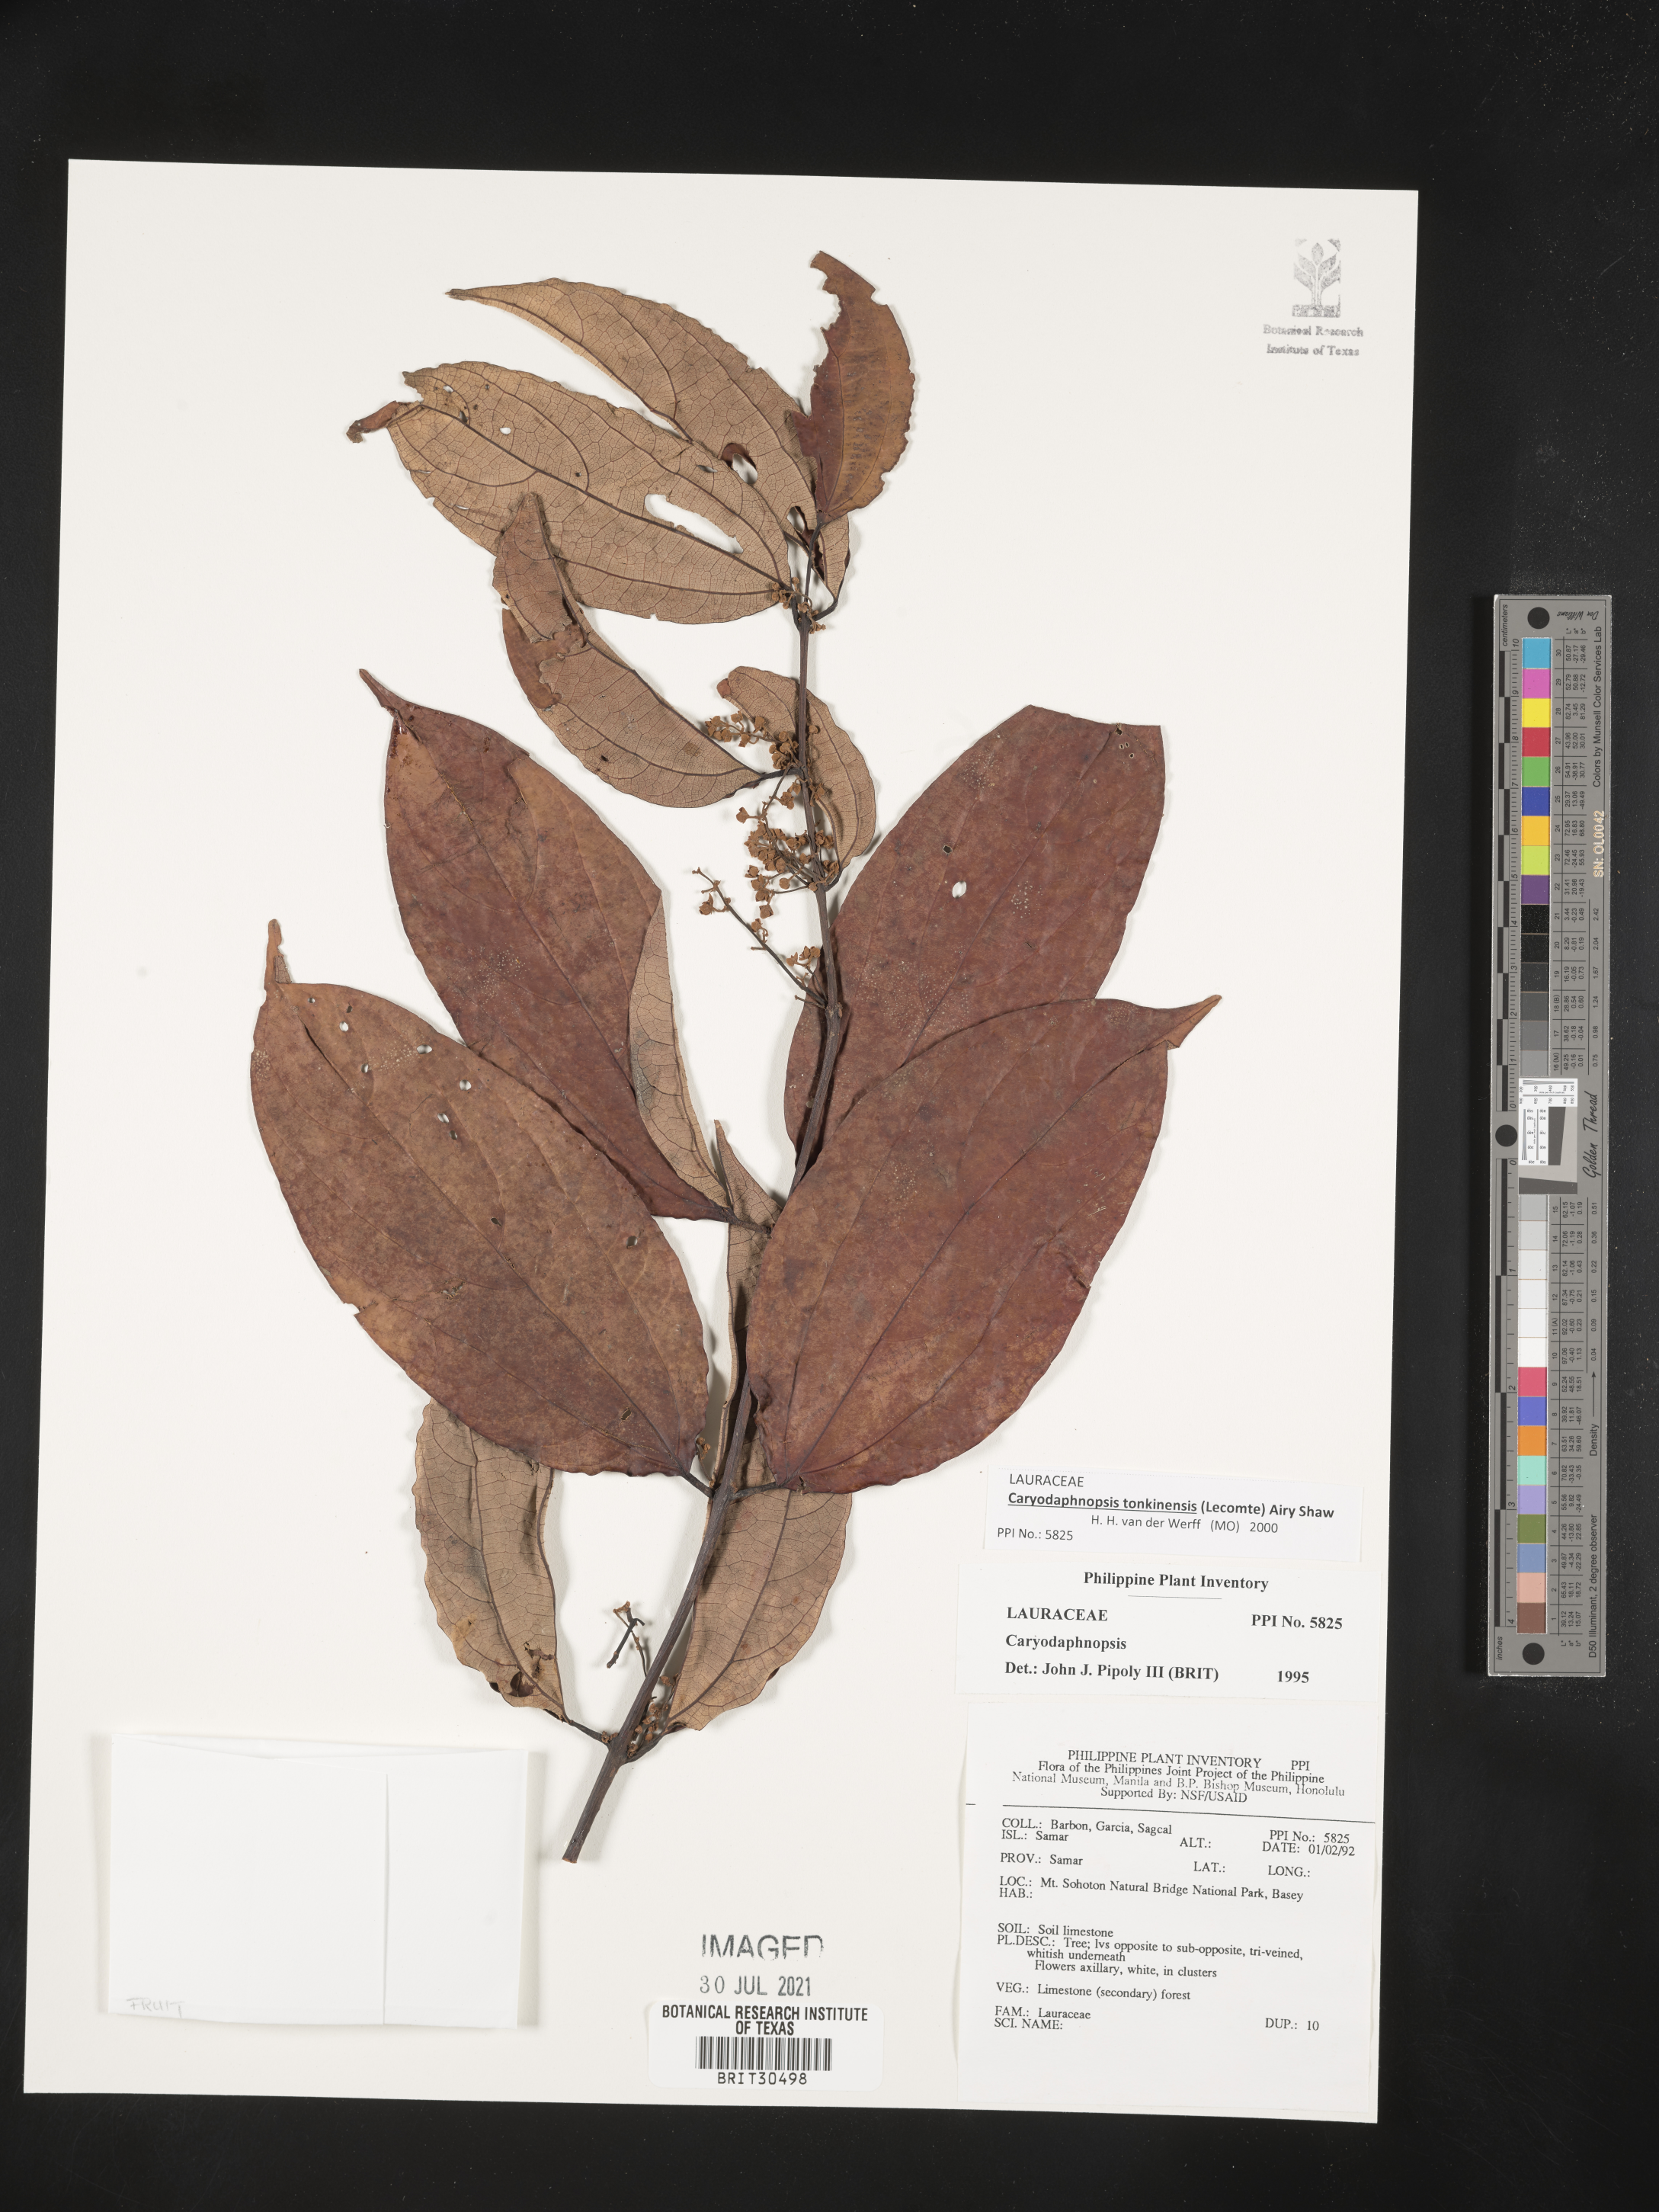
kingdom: Plantae
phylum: Tracheophyta
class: Magnoliopsida
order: Laurales
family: Lauraceae
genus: Caryodaphnopsis
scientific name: Caryodaphnopsis
